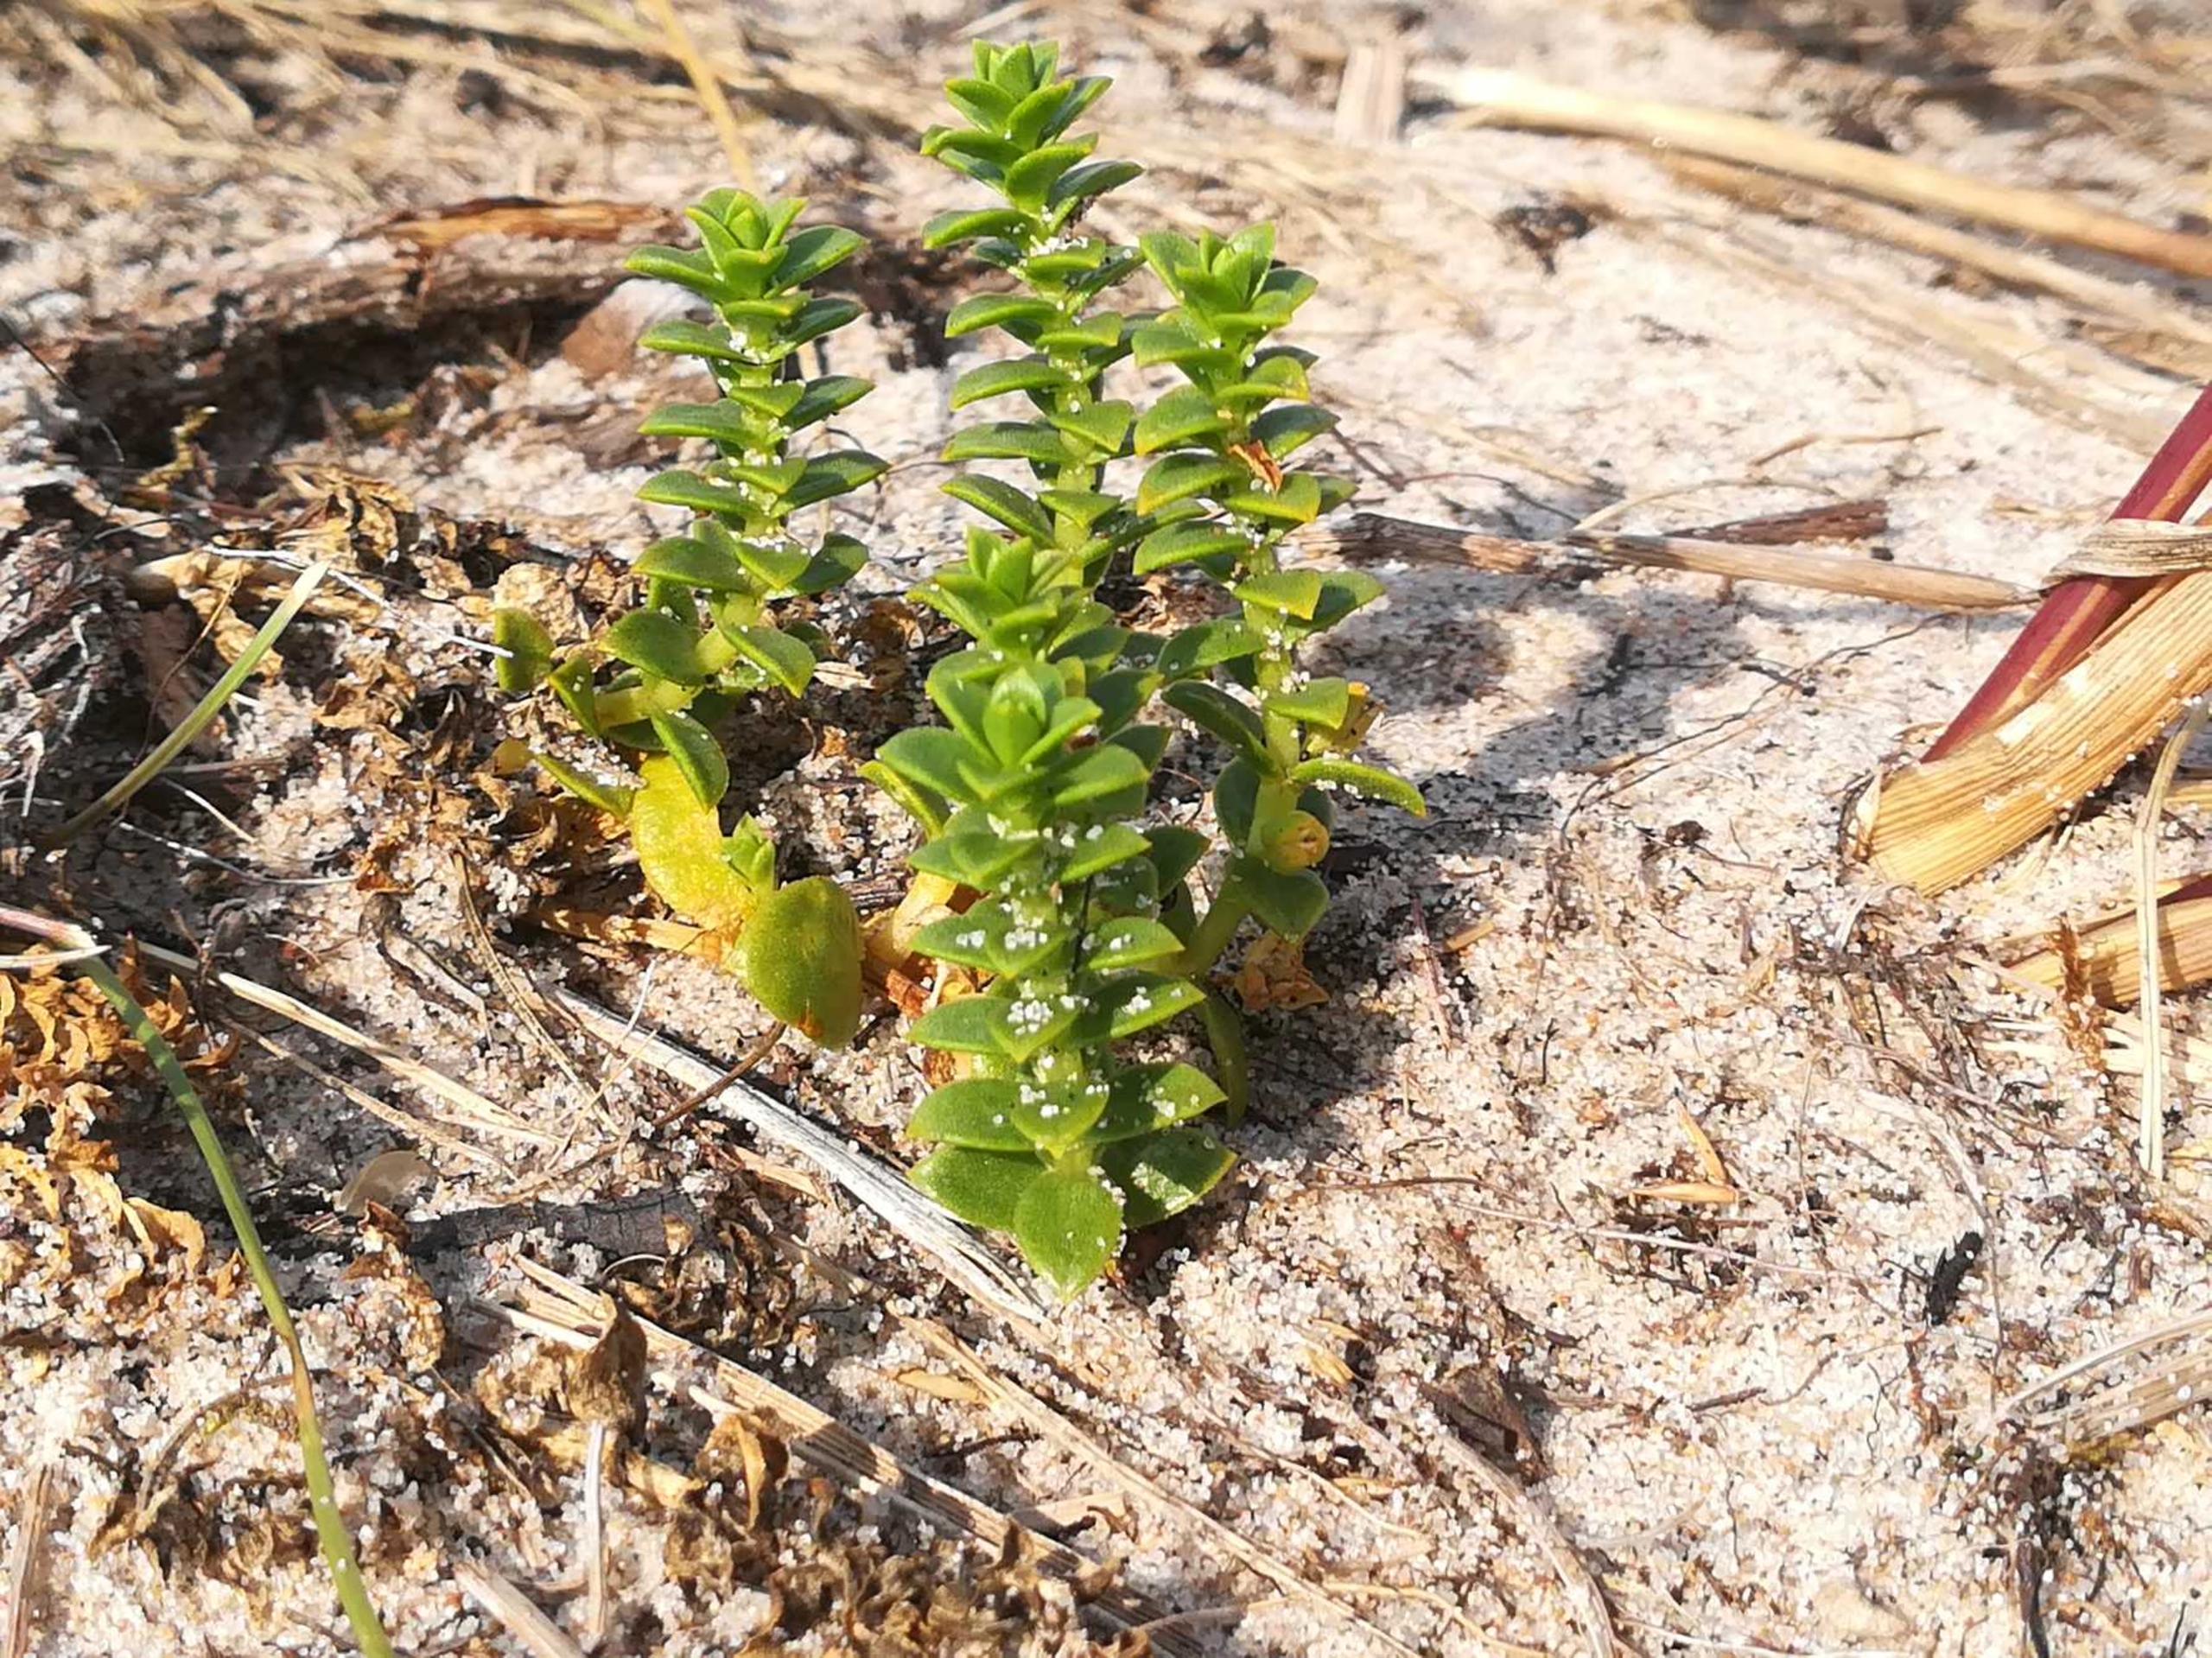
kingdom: Plantae
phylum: Tracheophyta
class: Magnoliopsida
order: Caryophyllales
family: Caryophyllaceae
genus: Honckenya
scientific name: Honckenya peploides
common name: Strandarve
